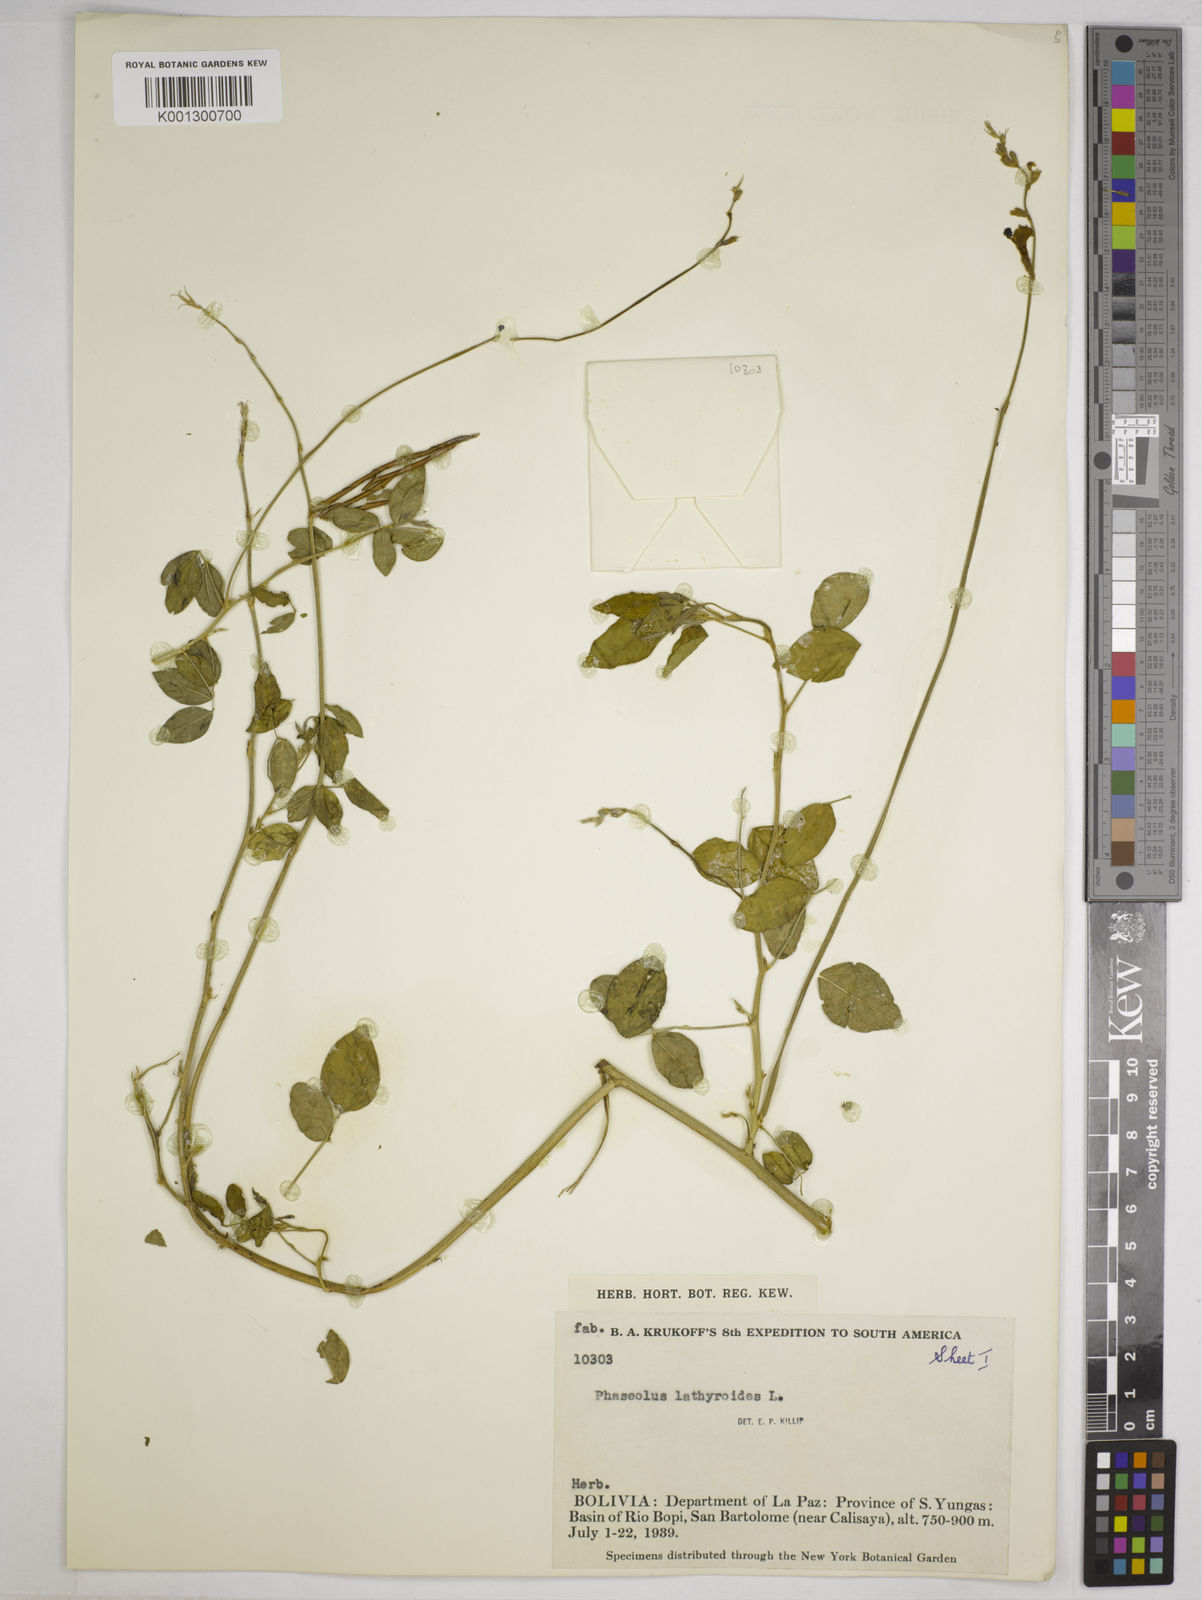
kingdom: Plantae
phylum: Tracheophyta
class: Magnoliopsida
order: Fabales
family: Fabaceae
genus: Macroptilium
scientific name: Macroptilium lathyroides
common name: Wild bushbean
